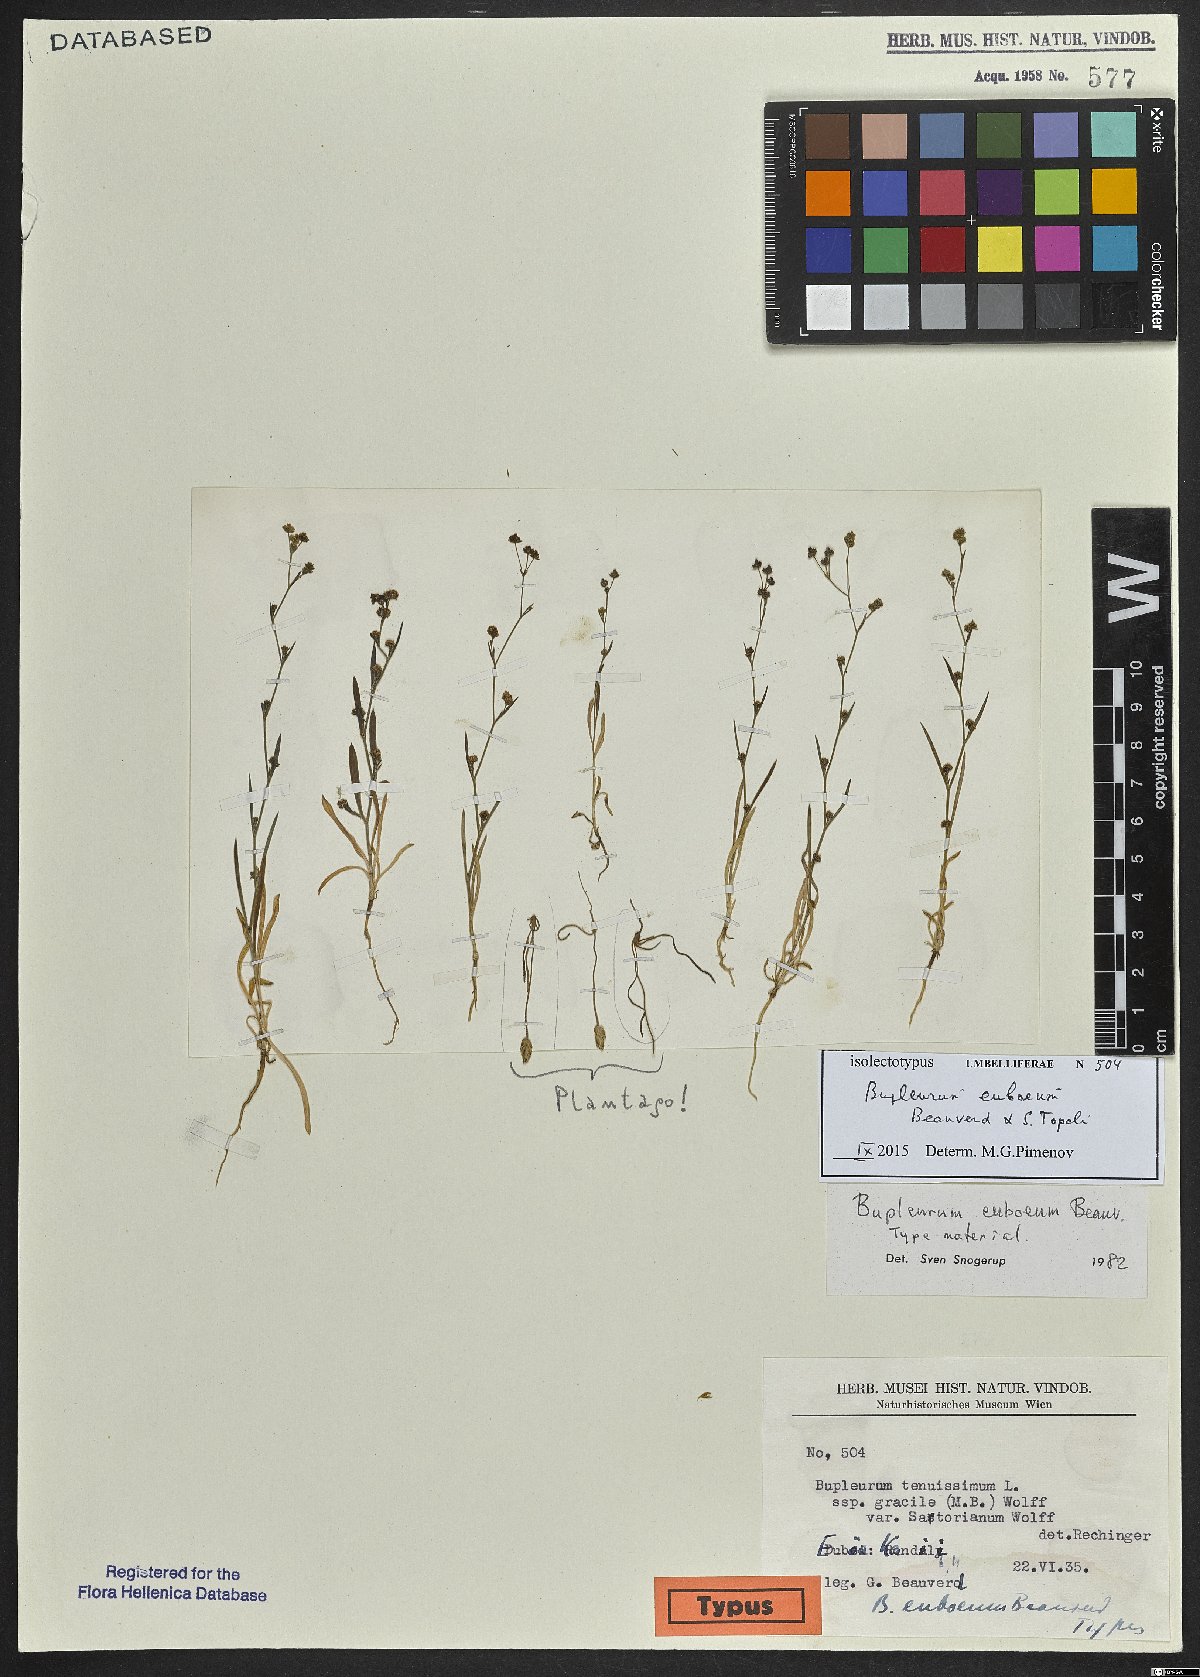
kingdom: Plantae
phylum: Tracheophyta
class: Magnoliopsida
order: Apiales
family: Apiaceae
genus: Bupleurum
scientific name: Bupleurum euboeum
